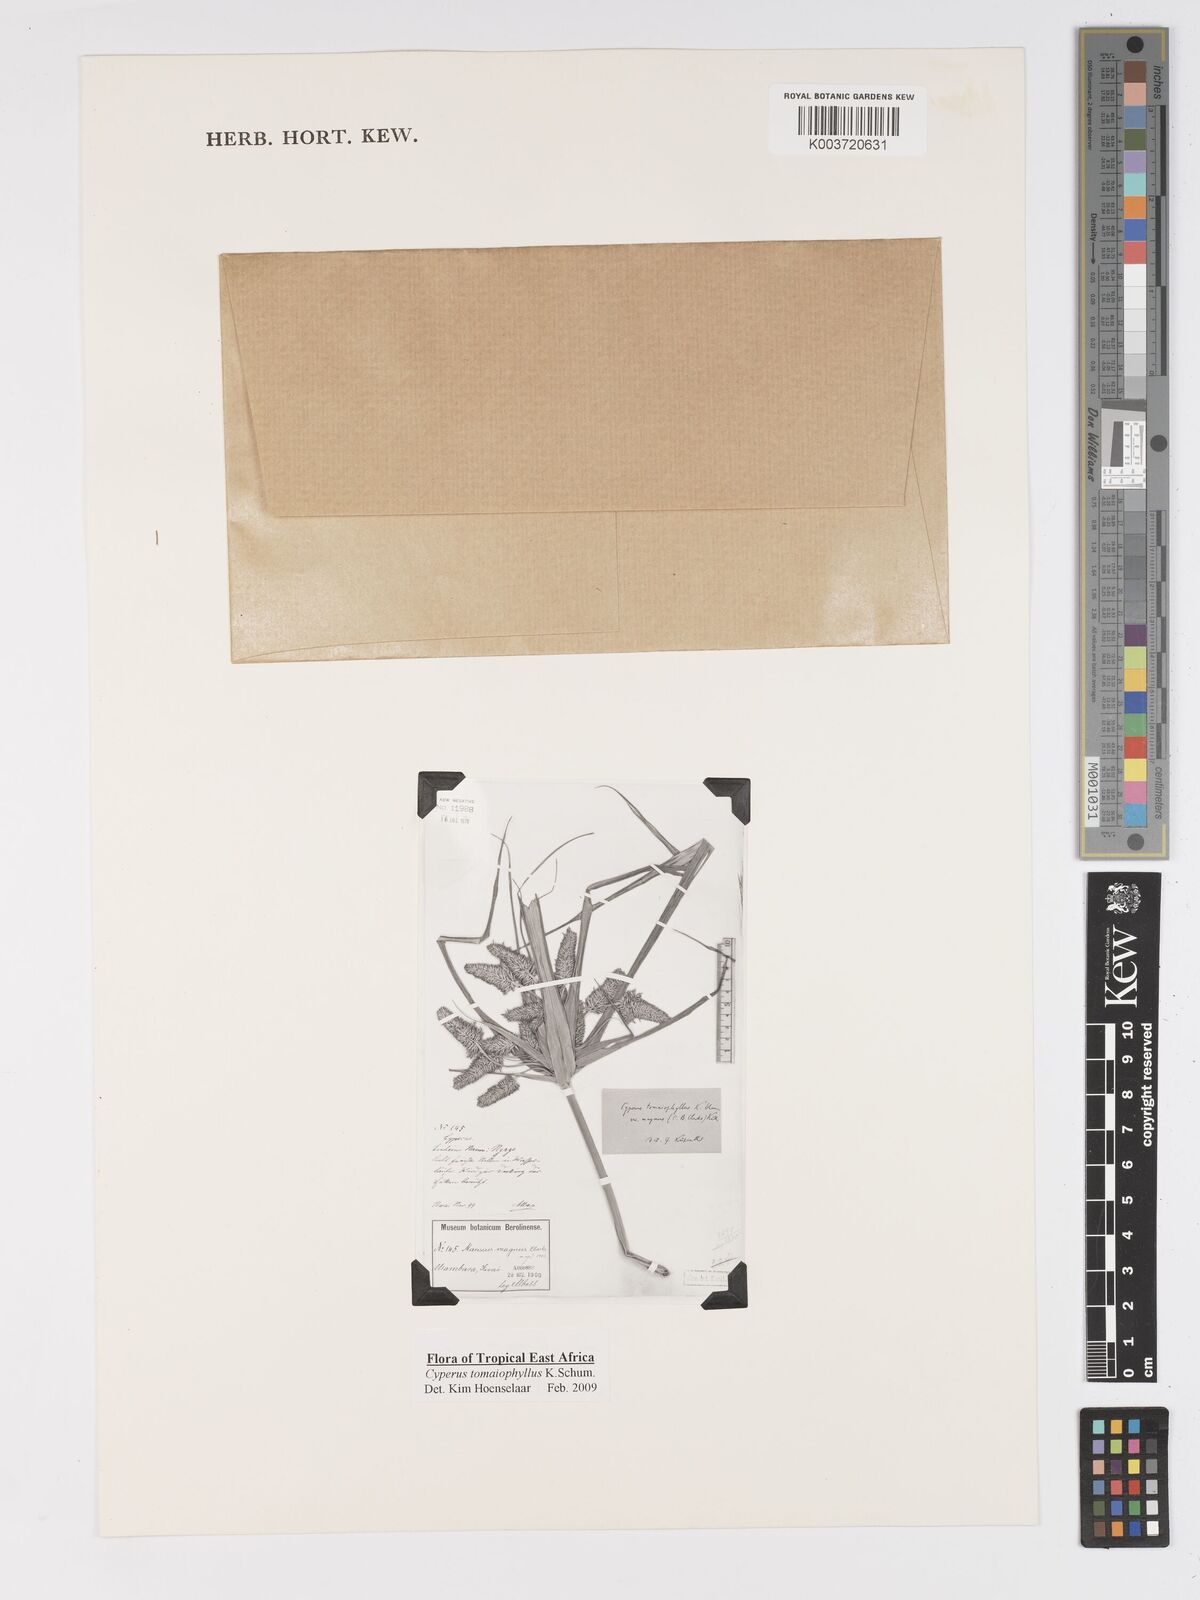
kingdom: Plantae
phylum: Tracheophyta
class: Liliopsida
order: Poales
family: Cyperaceae
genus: Cyperus
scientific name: Cyperus tomaiophyllus
